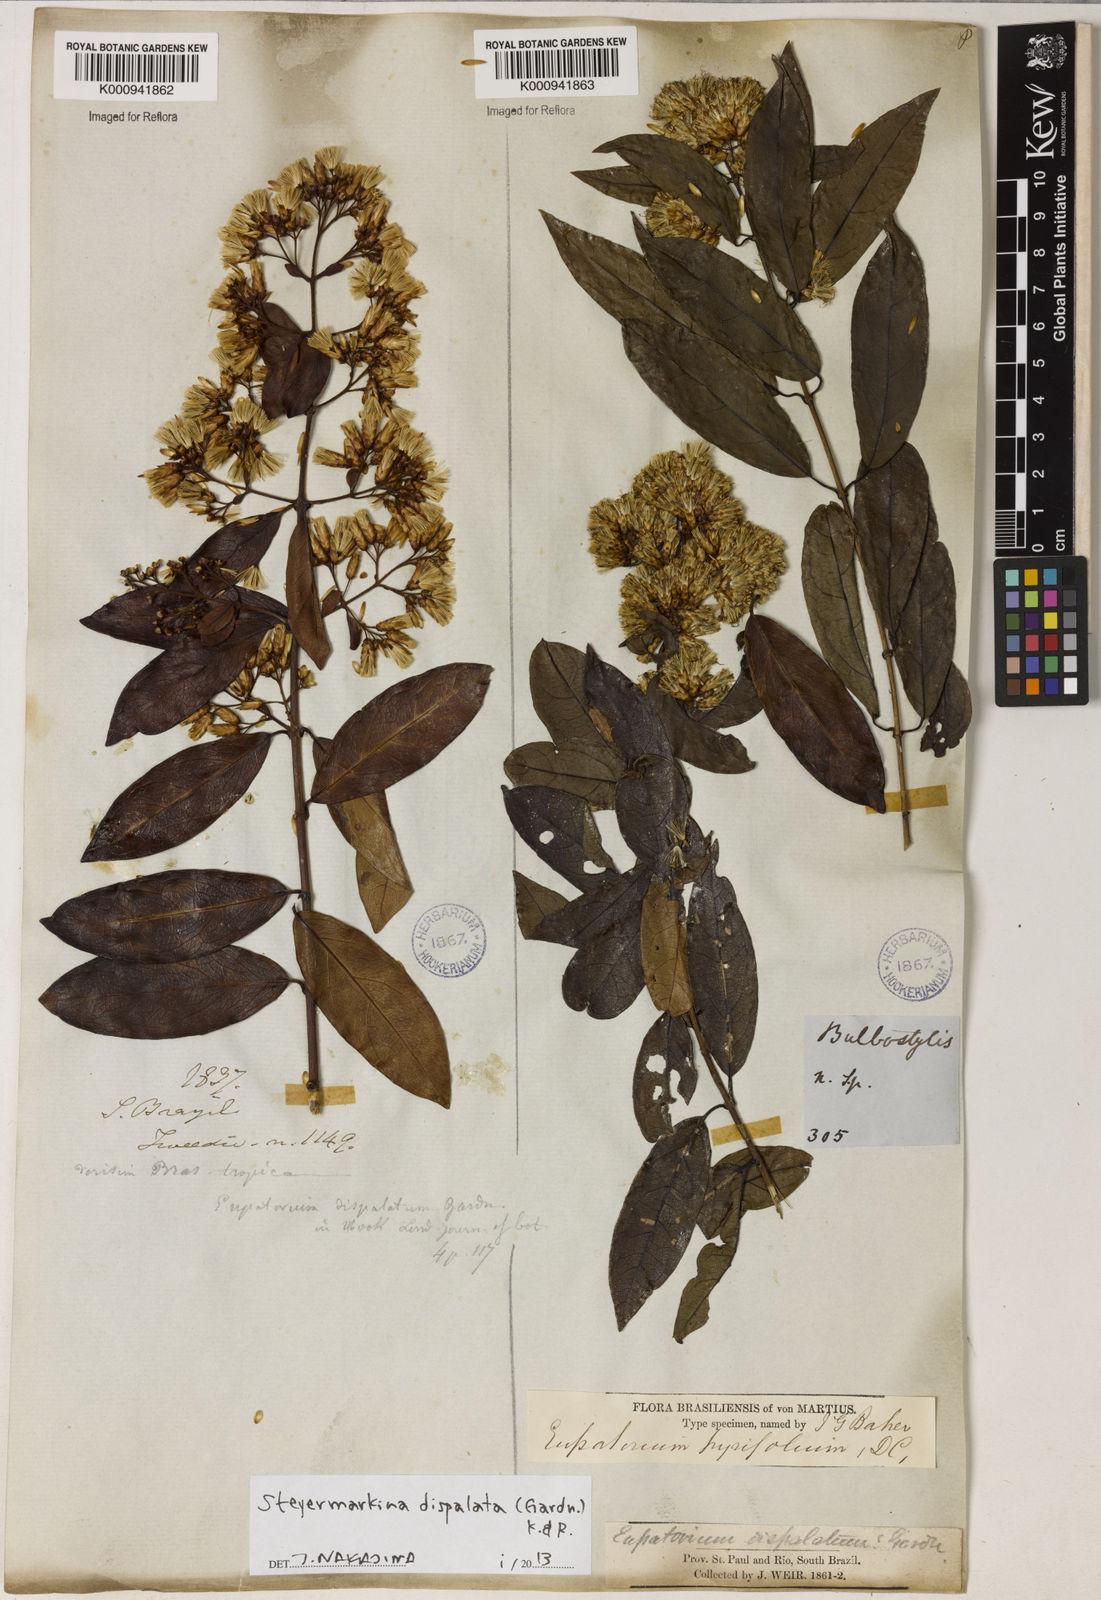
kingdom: Plantae
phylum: Tracheophyta
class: Magnoliopsida
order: Asterales
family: Asteraceae
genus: Steyermarkina
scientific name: Steyermarkina dispalata
